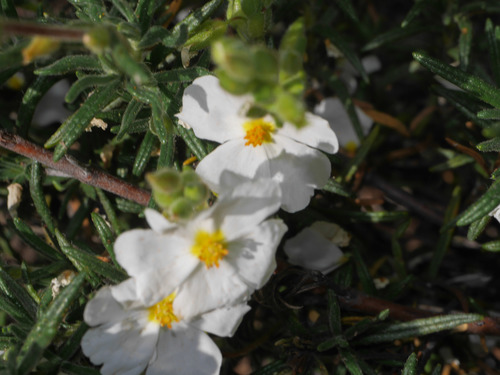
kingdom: Plantae
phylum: Tracheophyta
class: Magnoliopsida
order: Malvales
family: Cistaceae
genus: Halimium
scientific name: Halimium umbellatum
